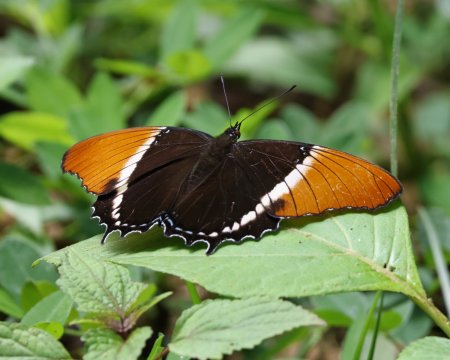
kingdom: Animalia
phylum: Arthropoda
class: Insecta
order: Lepidoptera
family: Nymphalidae
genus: Siproeta
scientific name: Siproeta epaphus
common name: Rusty-tipped Page
